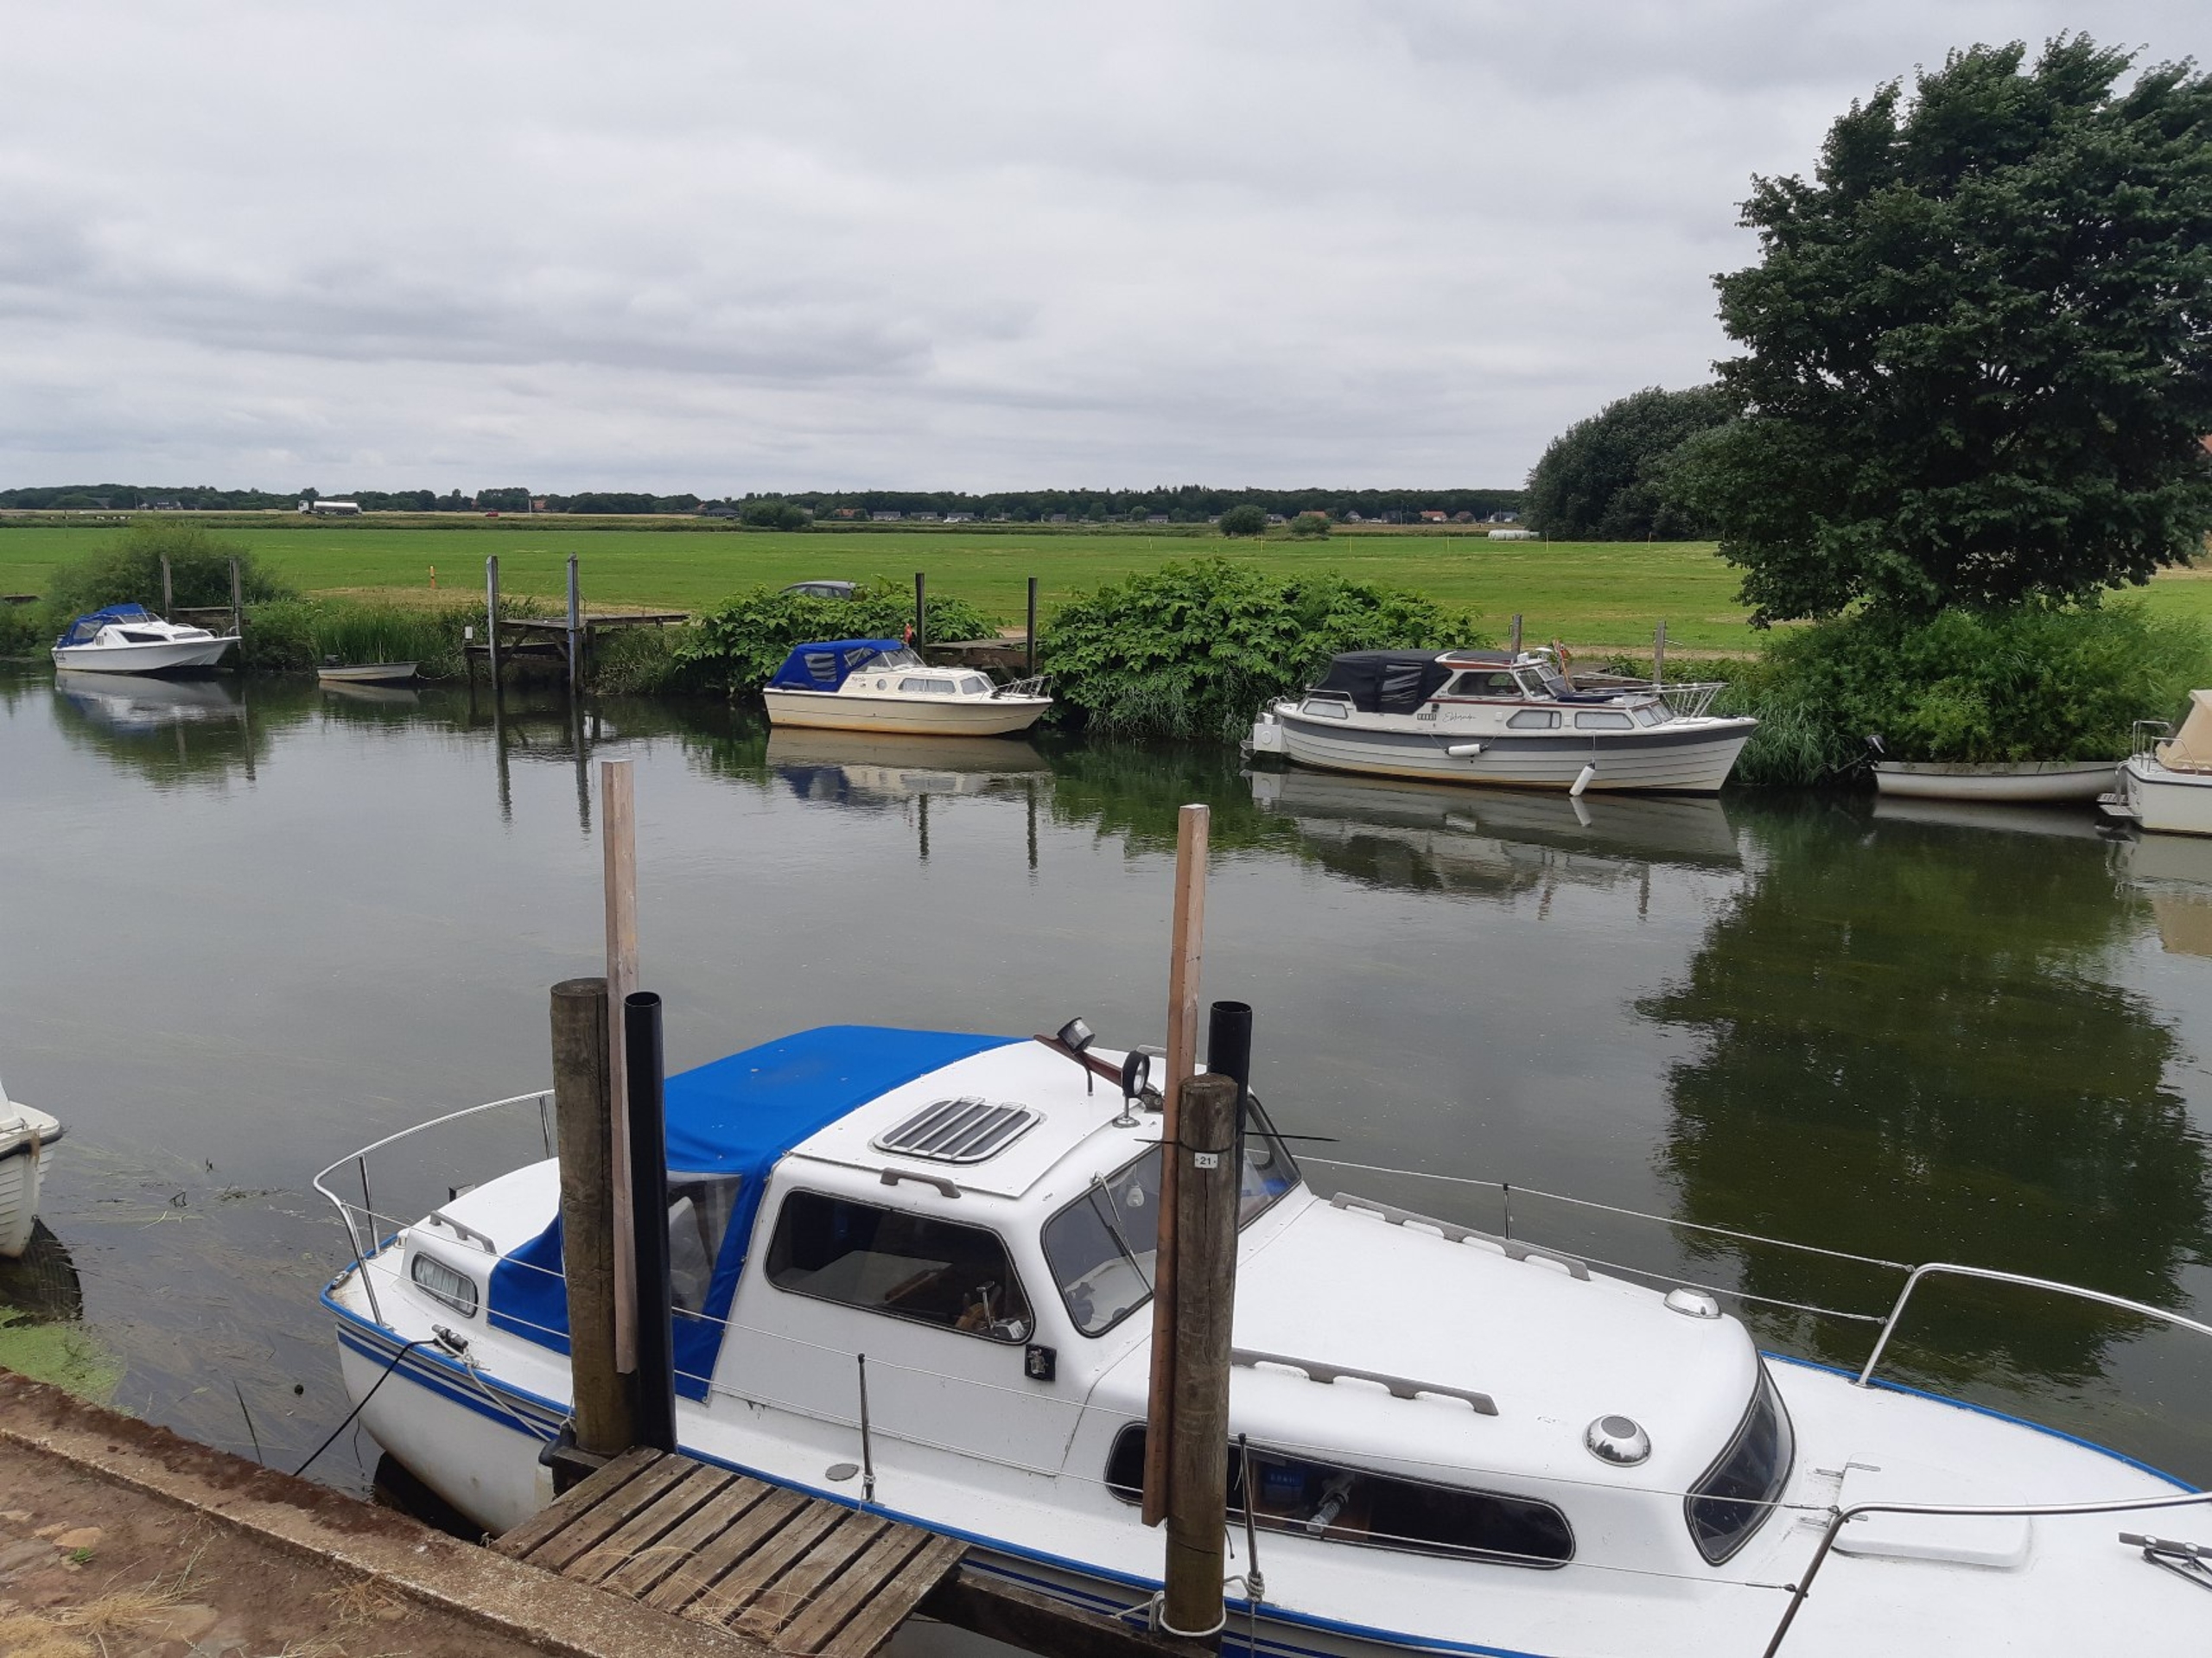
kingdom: Plantae
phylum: Tracheophyta
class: Magnoliopsida
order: Caryophyllales
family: Polygonaceae
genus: Reynoutria
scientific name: Reynoutria sachalinensis
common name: Kæmpe-pileurt
